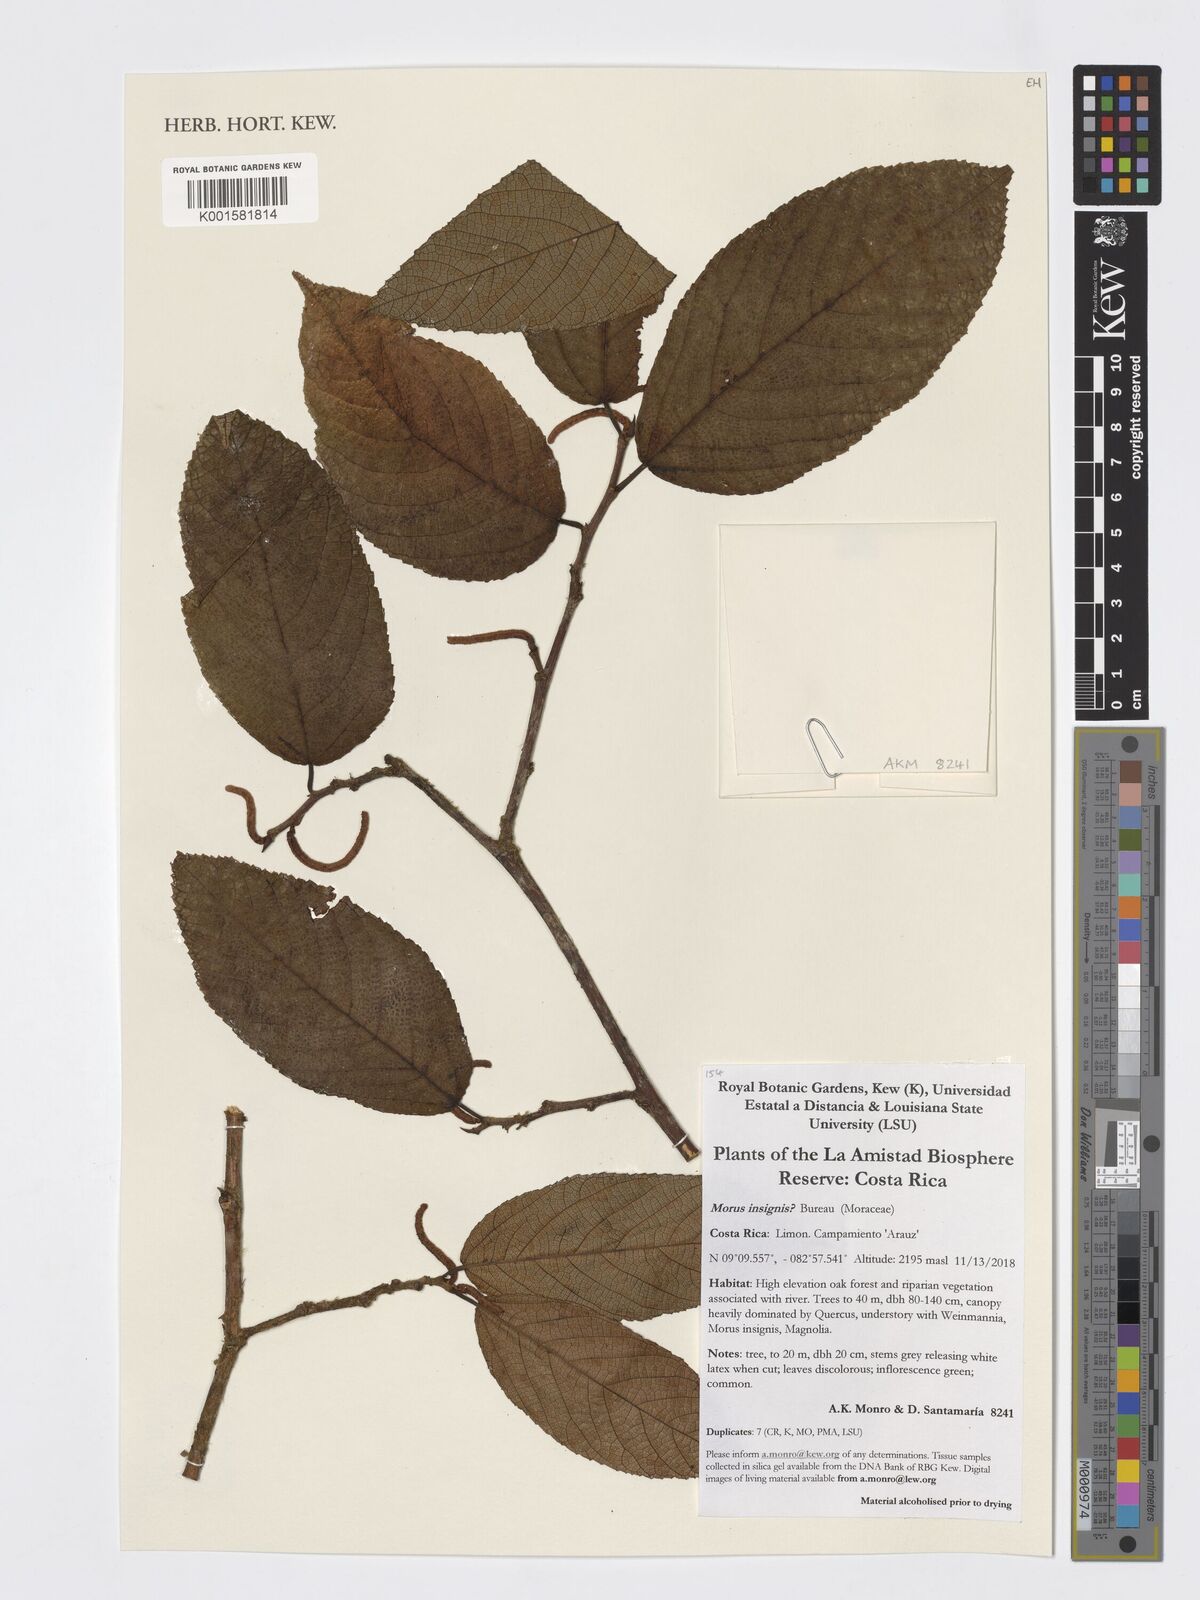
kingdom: Plantae
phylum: Tracheophyta
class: Magnoliopsida
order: Rosales
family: Moraceae
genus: Paratrophis
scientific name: Paratrophis insignis
